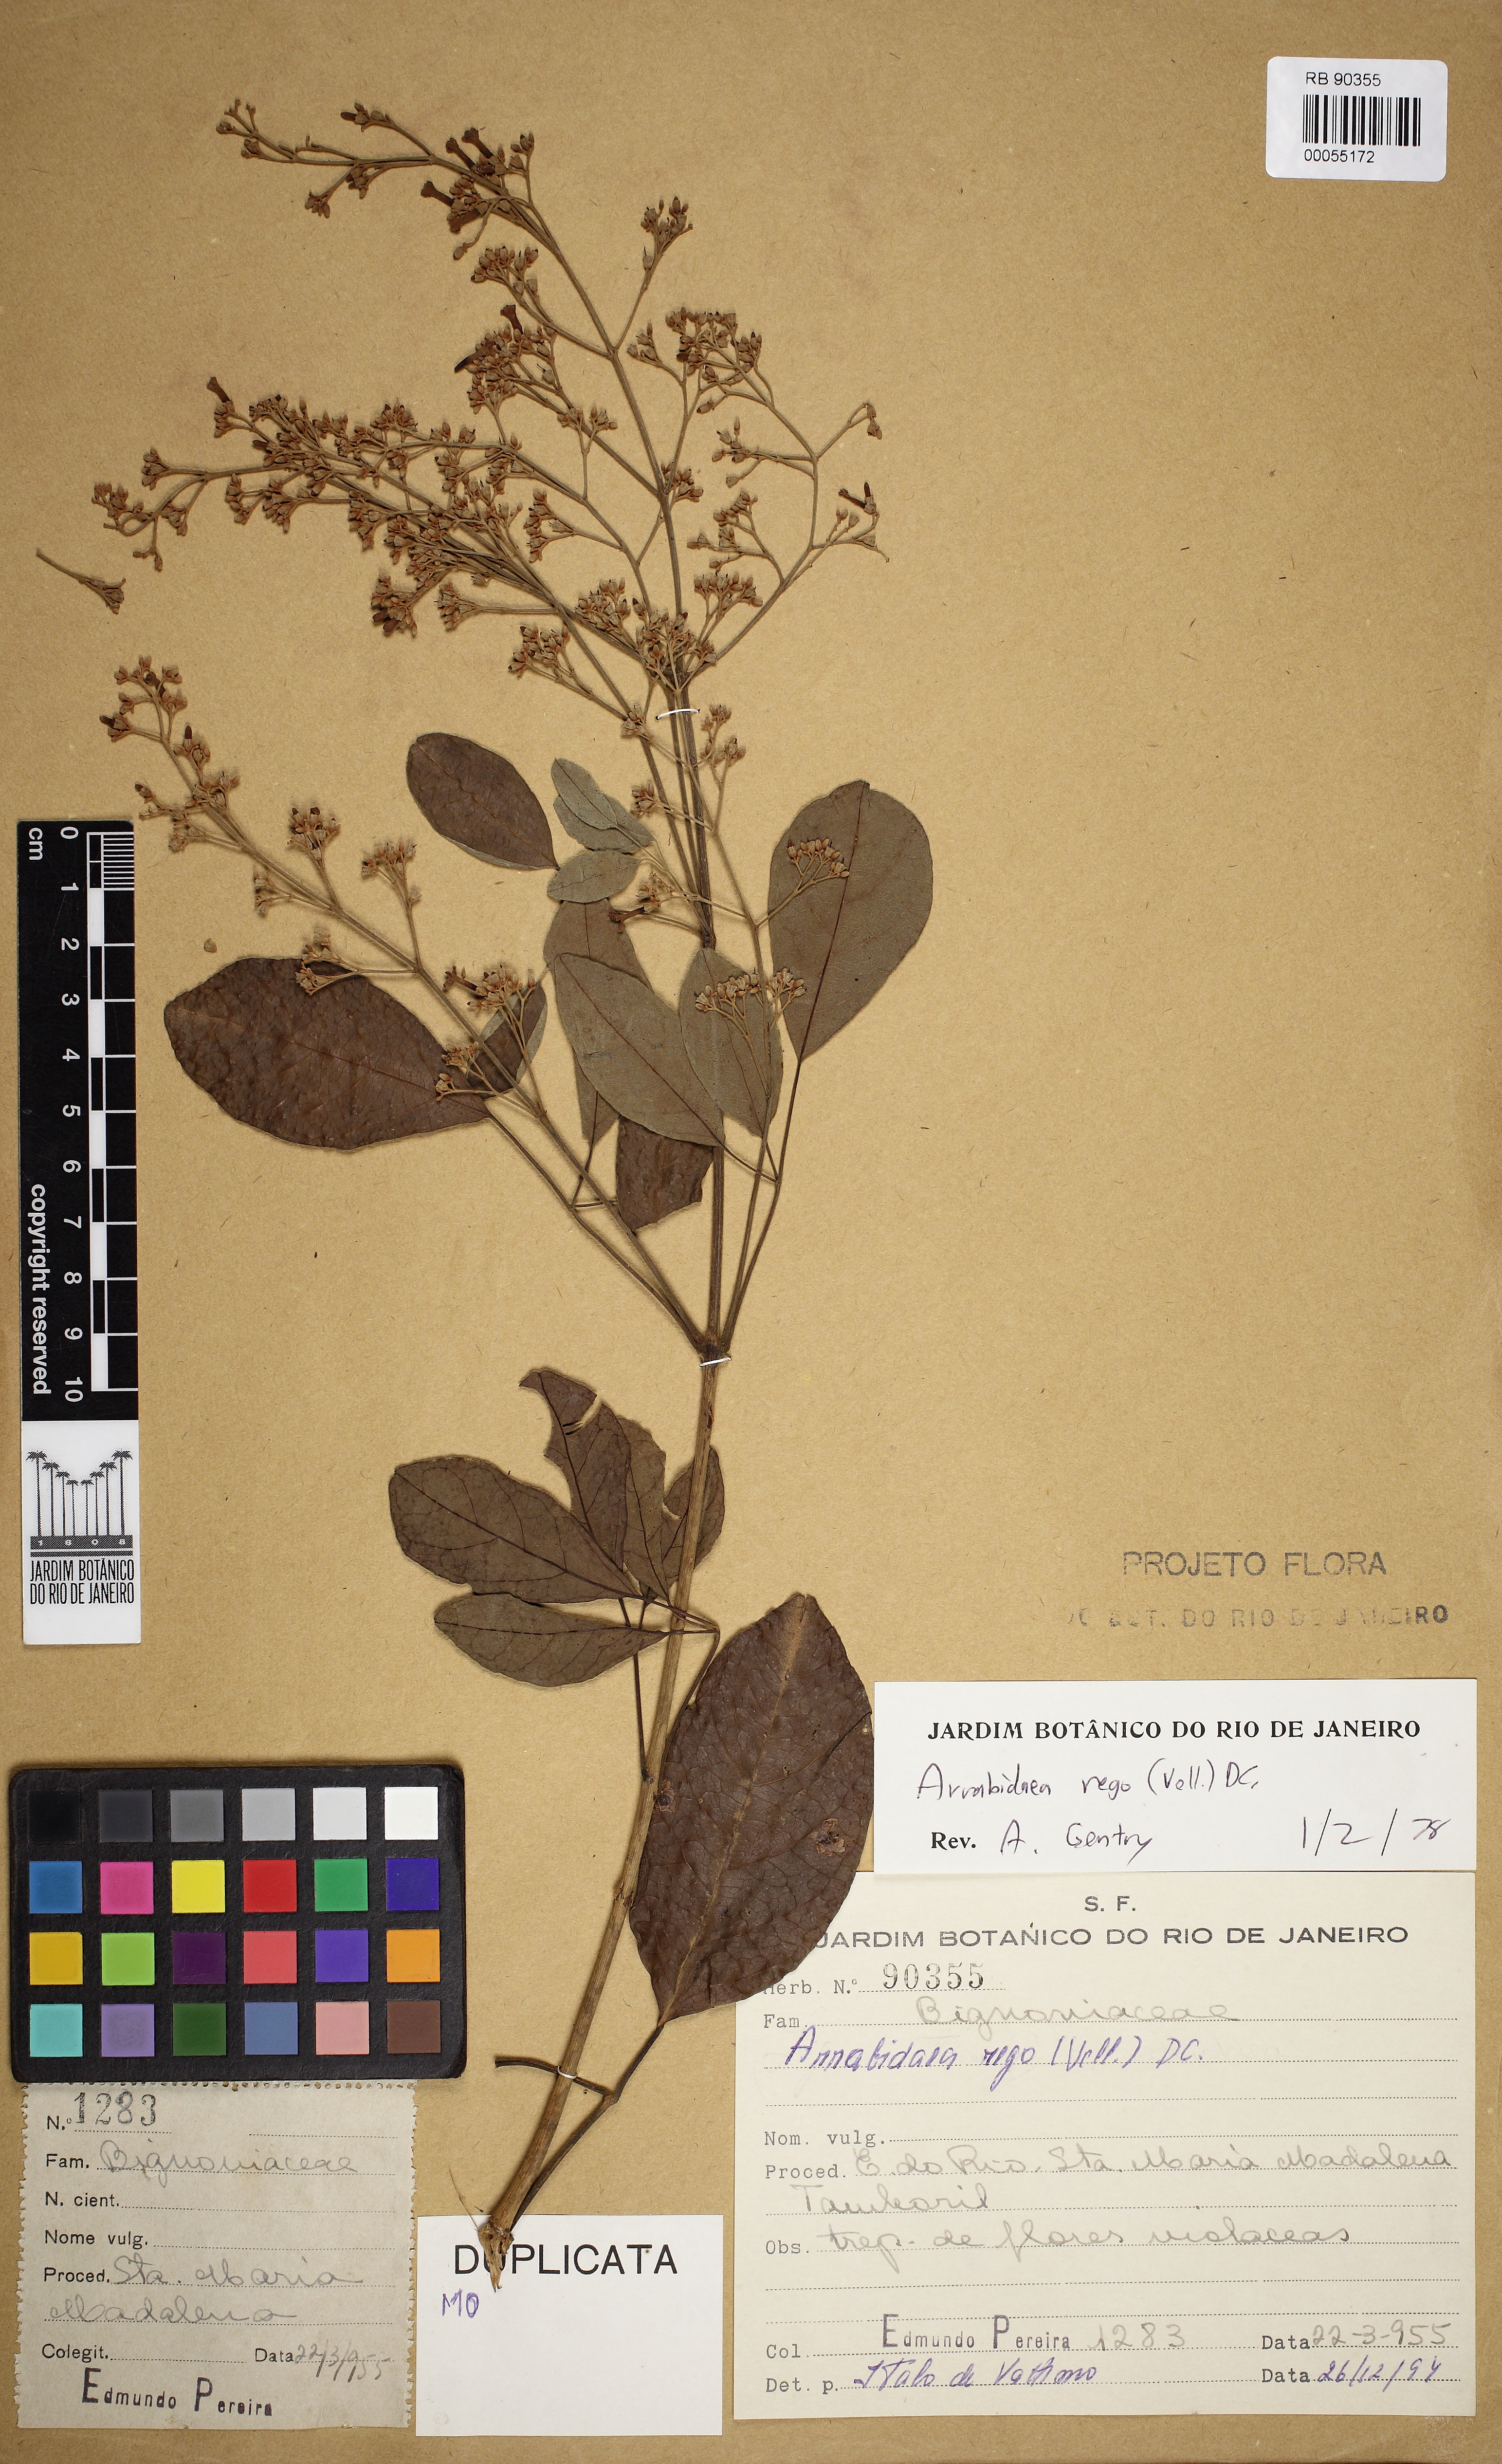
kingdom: Plantae
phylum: Tracheophyta
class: Magnoliopsida
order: Lamiales
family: Bignoniaceae
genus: Fridericia
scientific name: Fridericia rego
